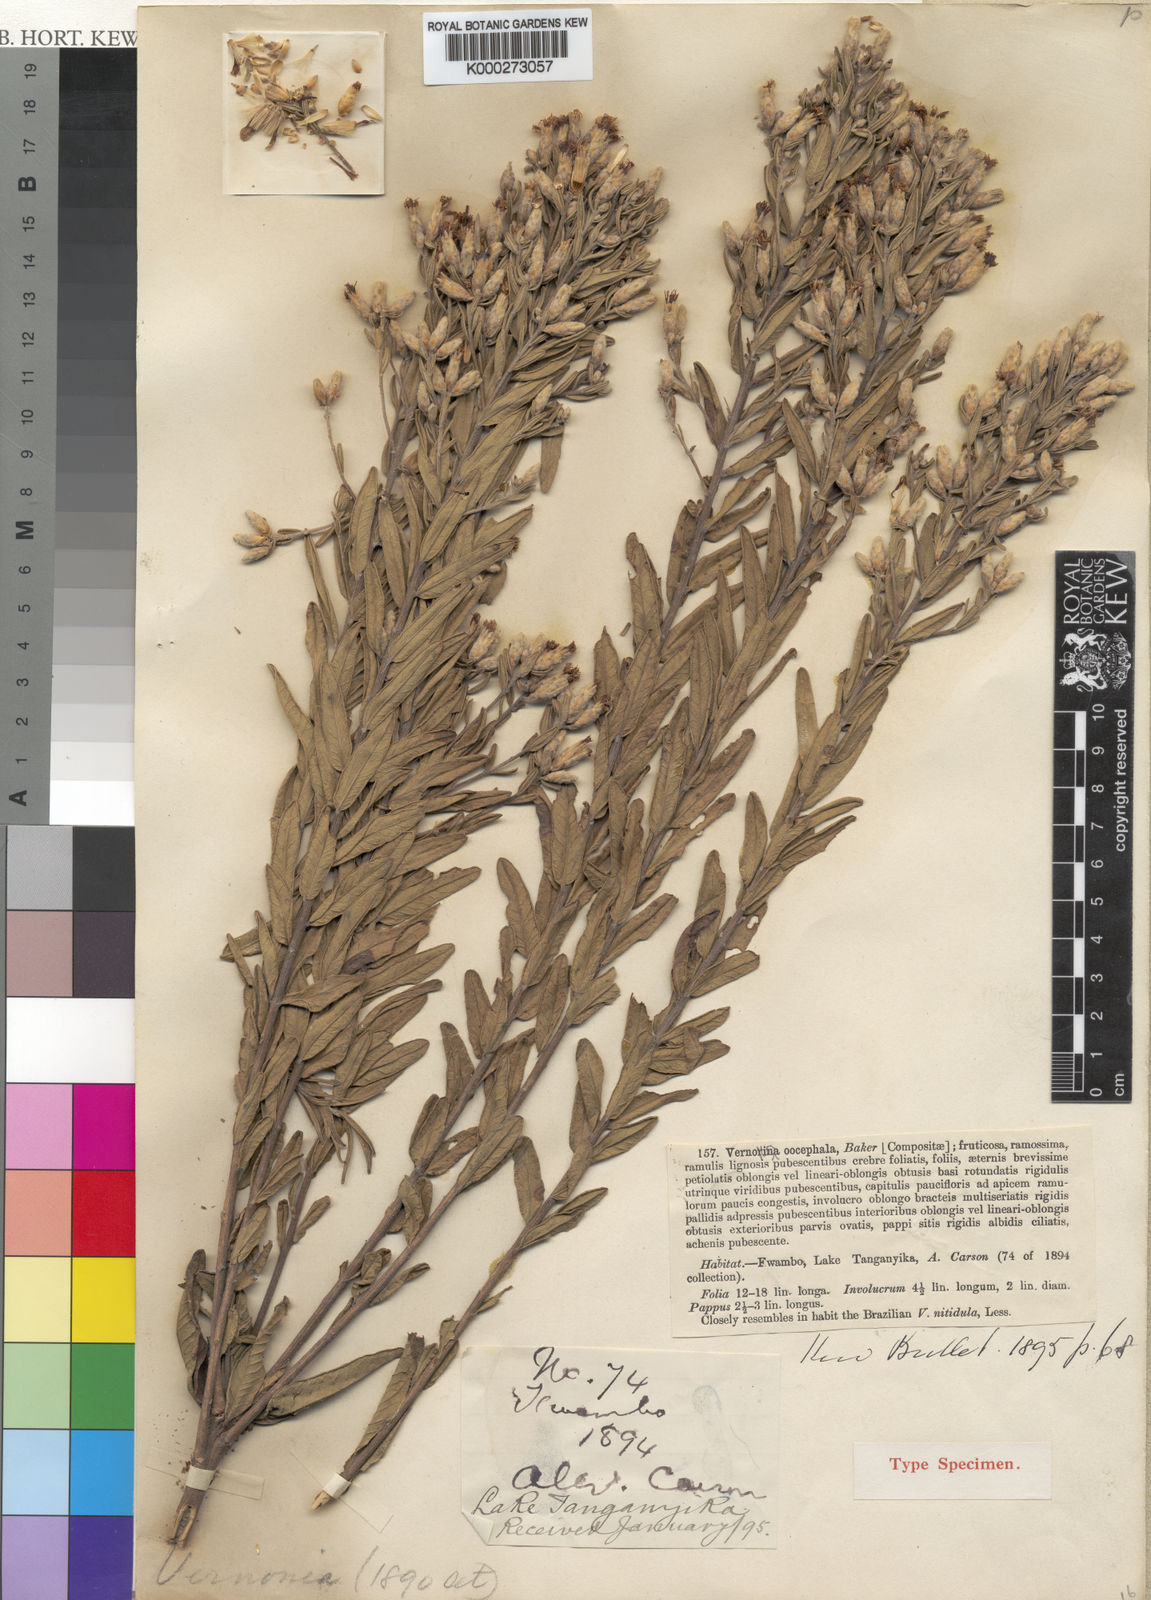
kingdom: Plantae
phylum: Tracheophyta
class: Magnoliopsida
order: Asterales
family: Asteraceae
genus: Oocephala
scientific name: Oocephala stenocephala
